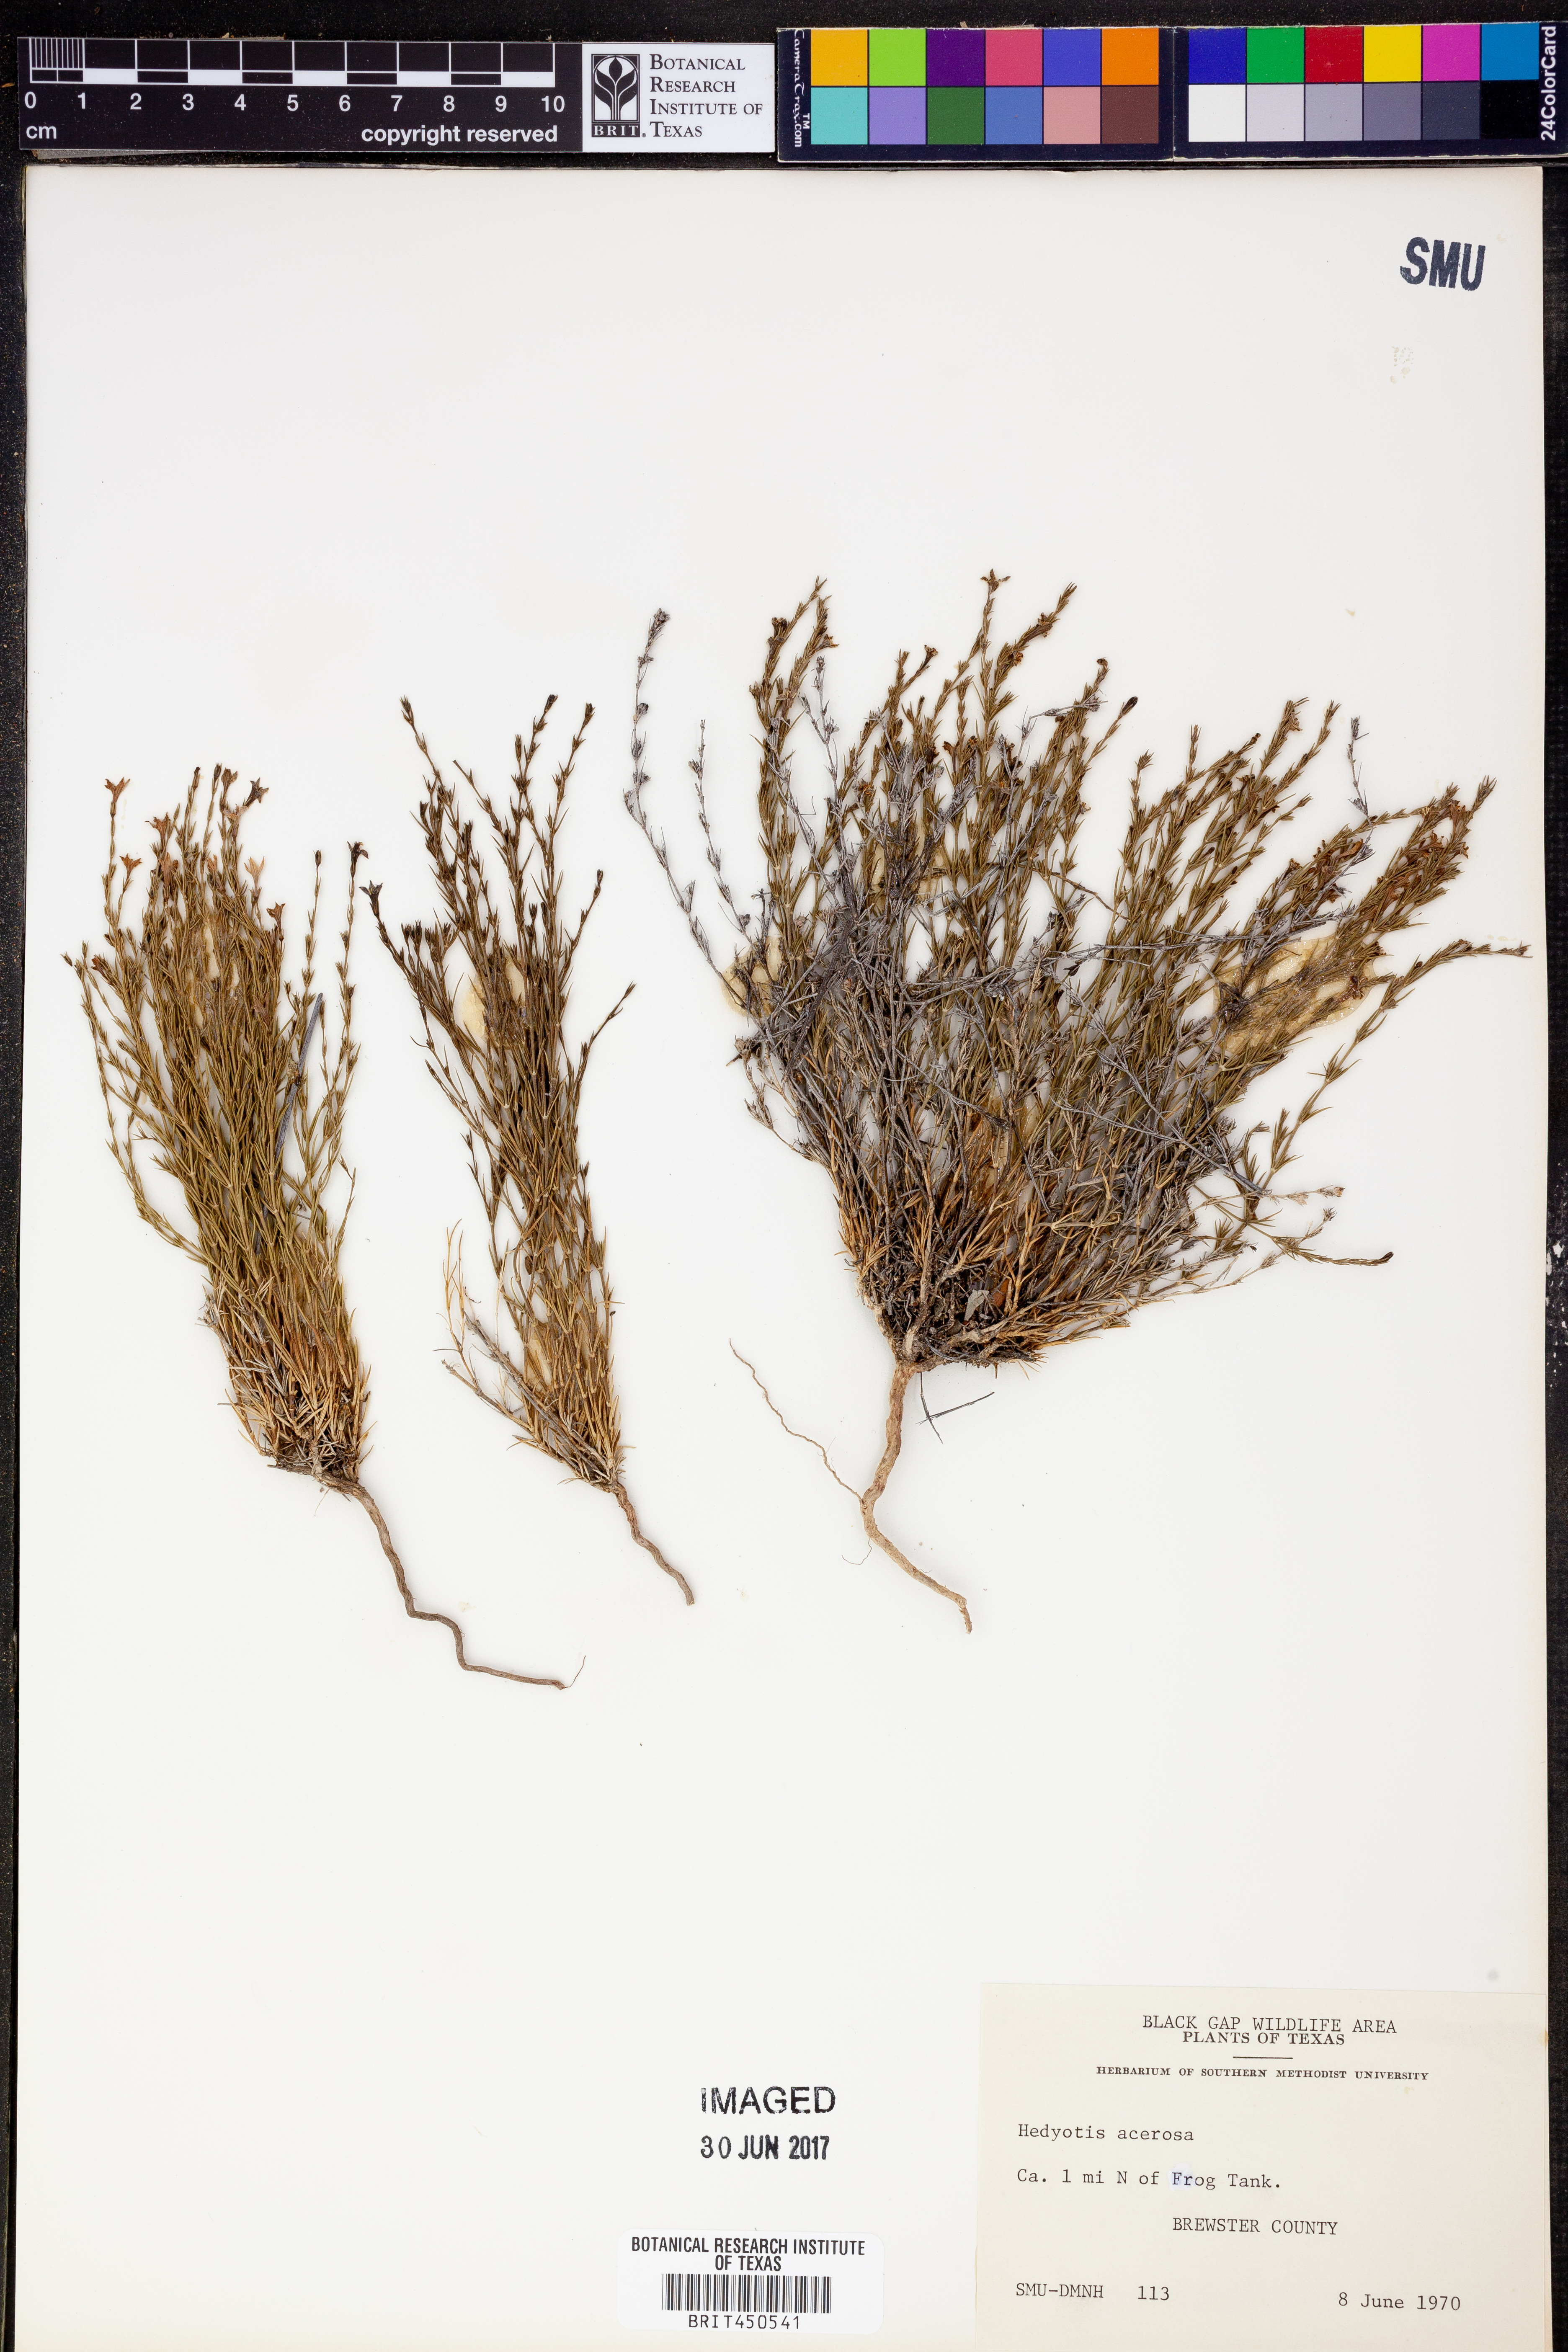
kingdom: Plantae
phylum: Tracheophyta
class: Magnoliopsida
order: Gentianales
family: Rubiaceae
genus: Houstonia
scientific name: Houstonia acerosa
